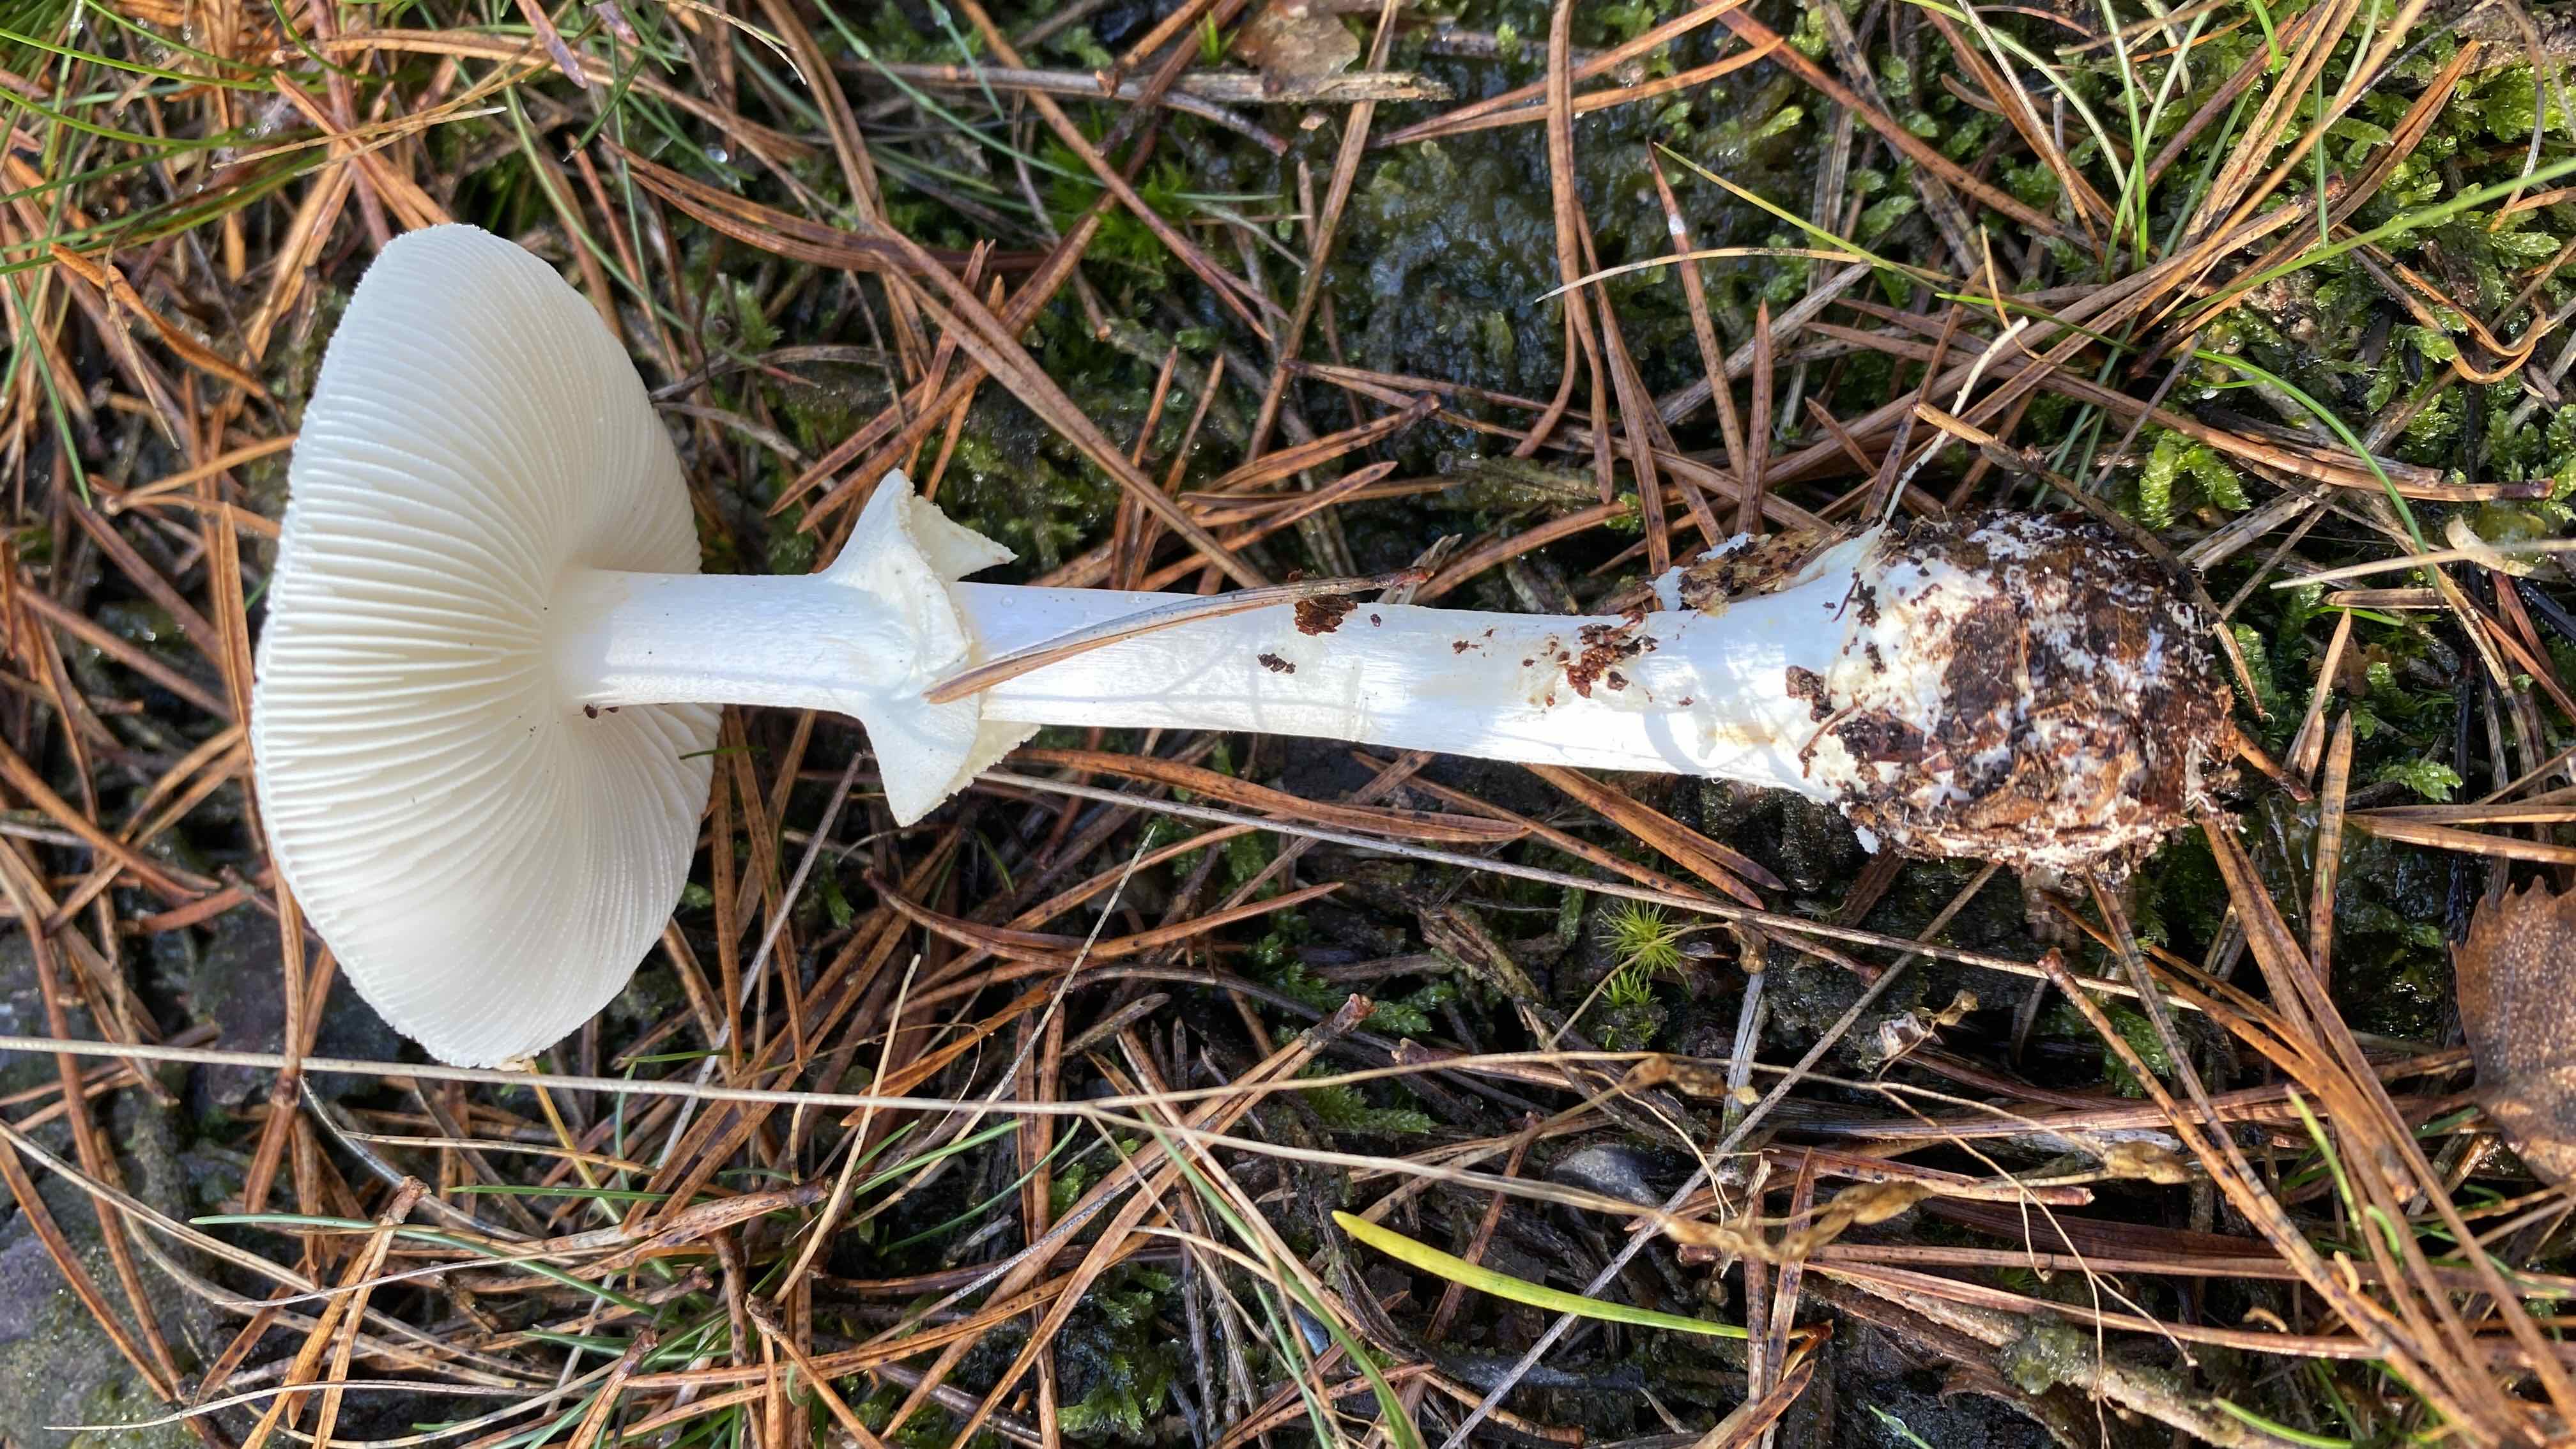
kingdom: Fungi
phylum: Basidiomycota
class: Agaricomycetes
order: Agaricales
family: Amanitaceae
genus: Amanita
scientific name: Amanita citrina
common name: kugleknoldet fluesvamp
